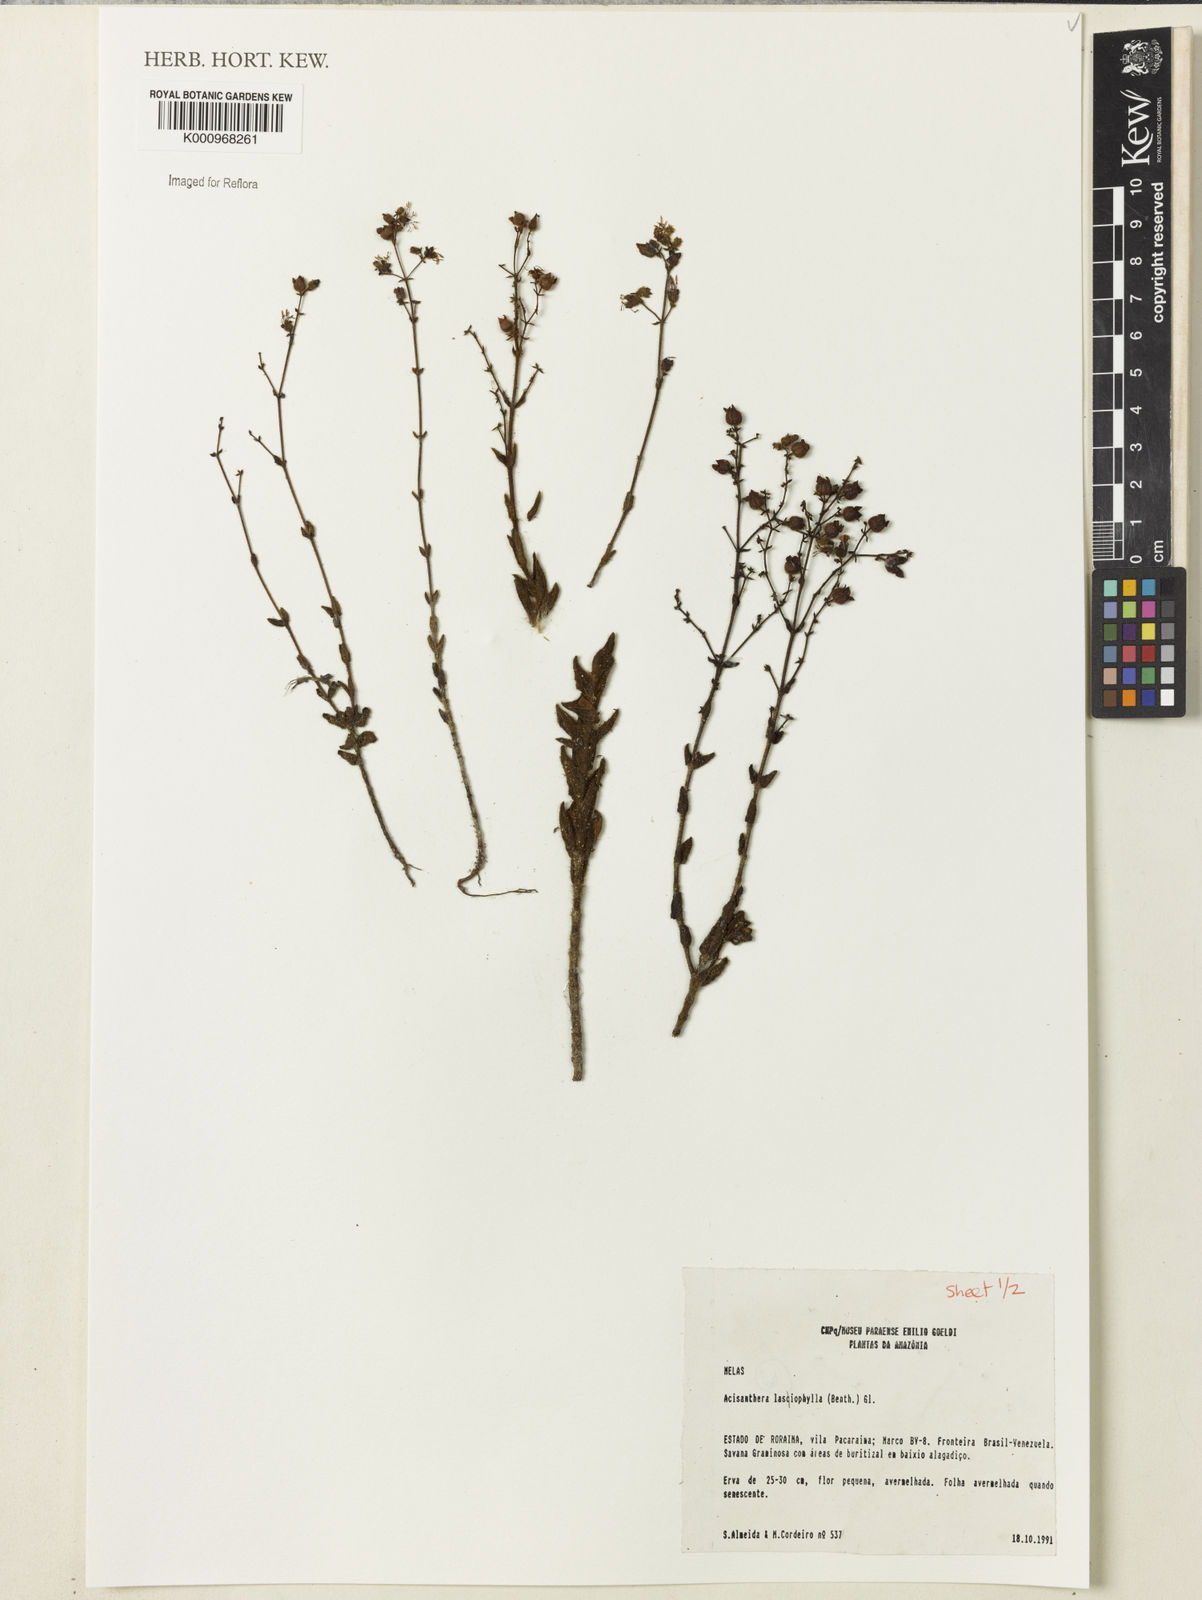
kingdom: Plantae
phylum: Tracheophyta
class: Magnoliopsida
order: Myrtales
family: Melastomataceae
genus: Macairea
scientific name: Macairea lasiophylla
